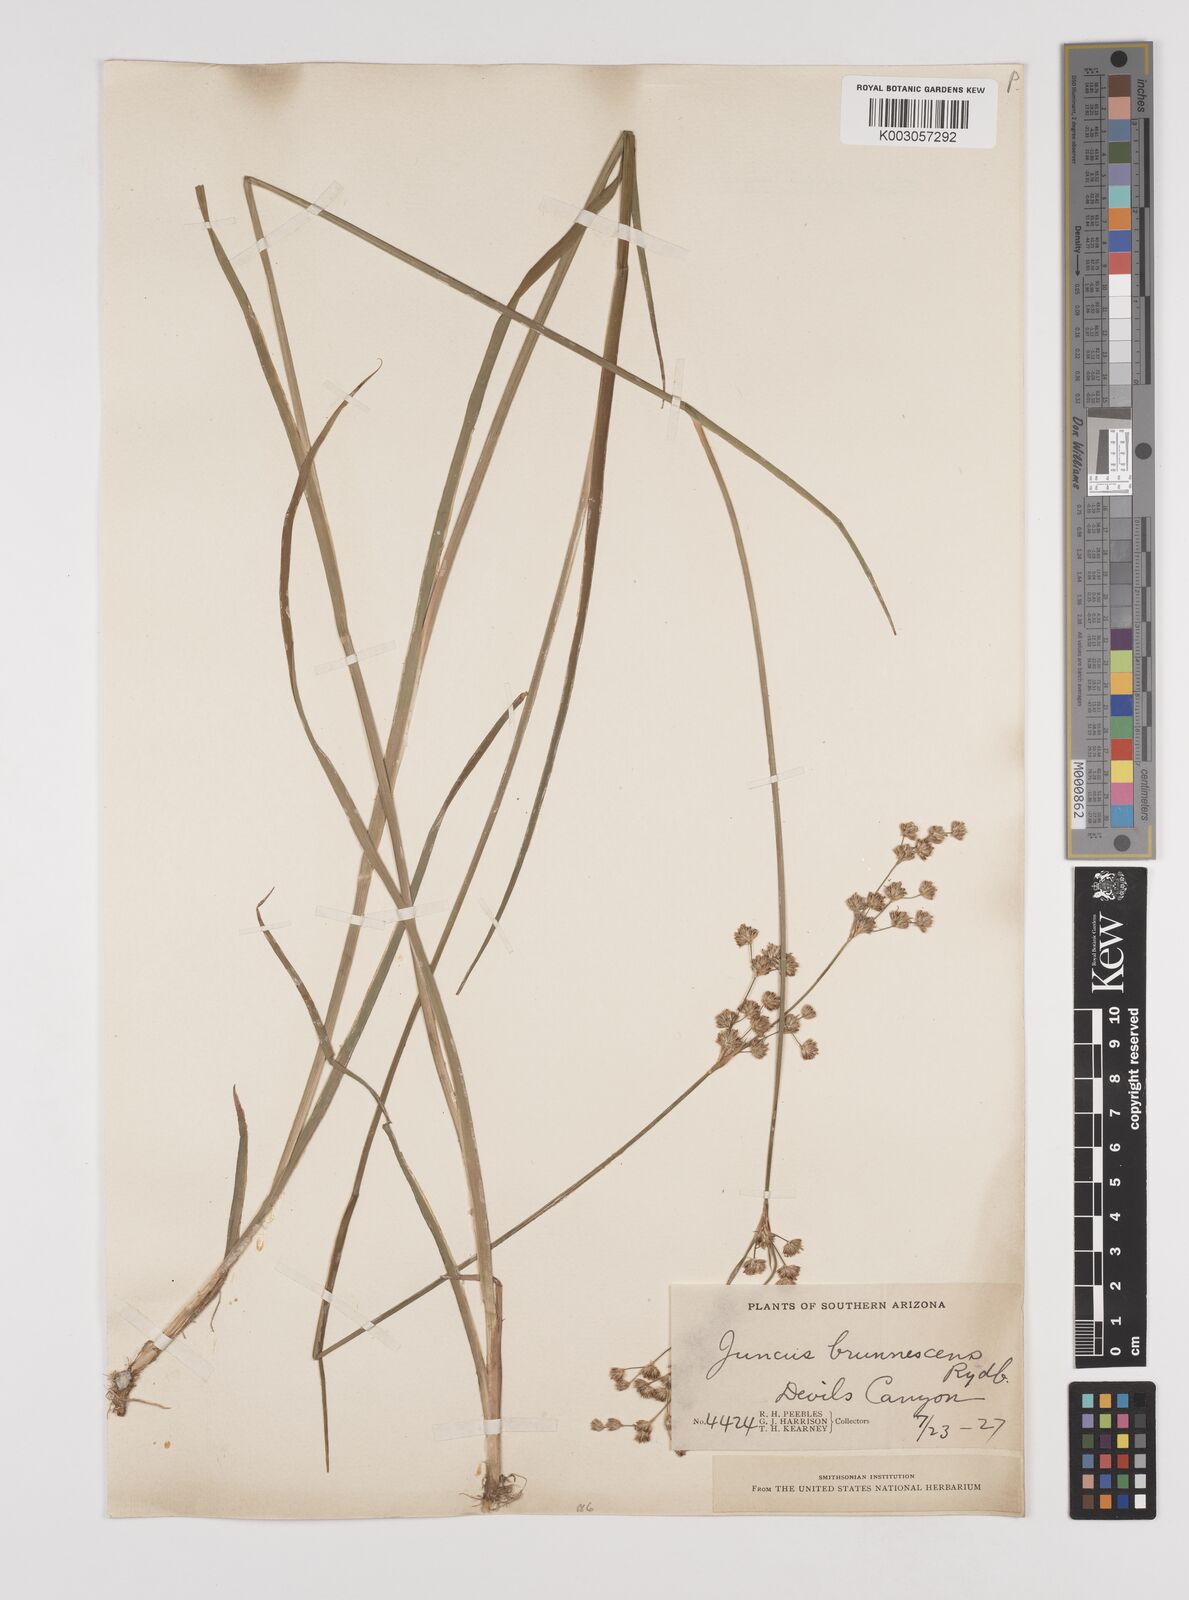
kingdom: Plantae
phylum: Tracheophyta
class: Liliopsida
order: Poales
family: Juncaceae
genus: Juncus
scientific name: Juncus saximontanus
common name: Rocky mountain rush
